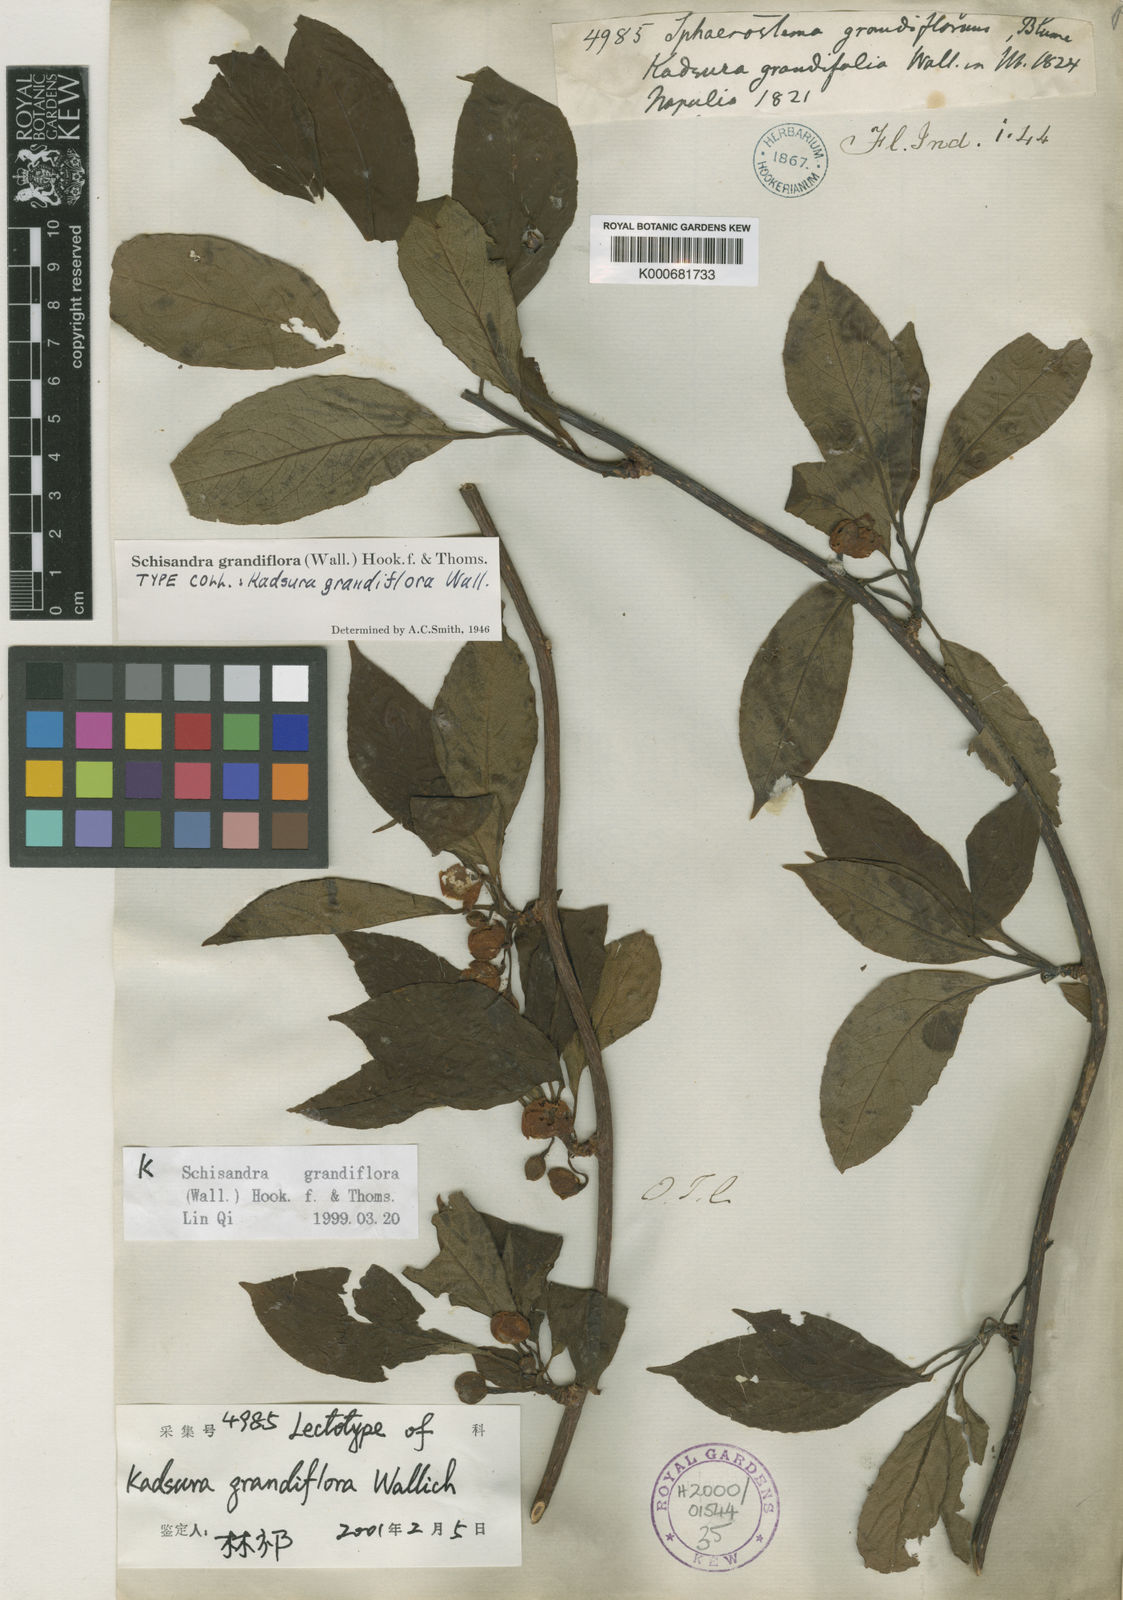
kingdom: Plantae
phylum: Tracheophyta
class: Magnoliopsida
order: Austrobaileyales
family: Schisandraceae
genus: Schisandra
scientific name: Schisandra grandiflora
